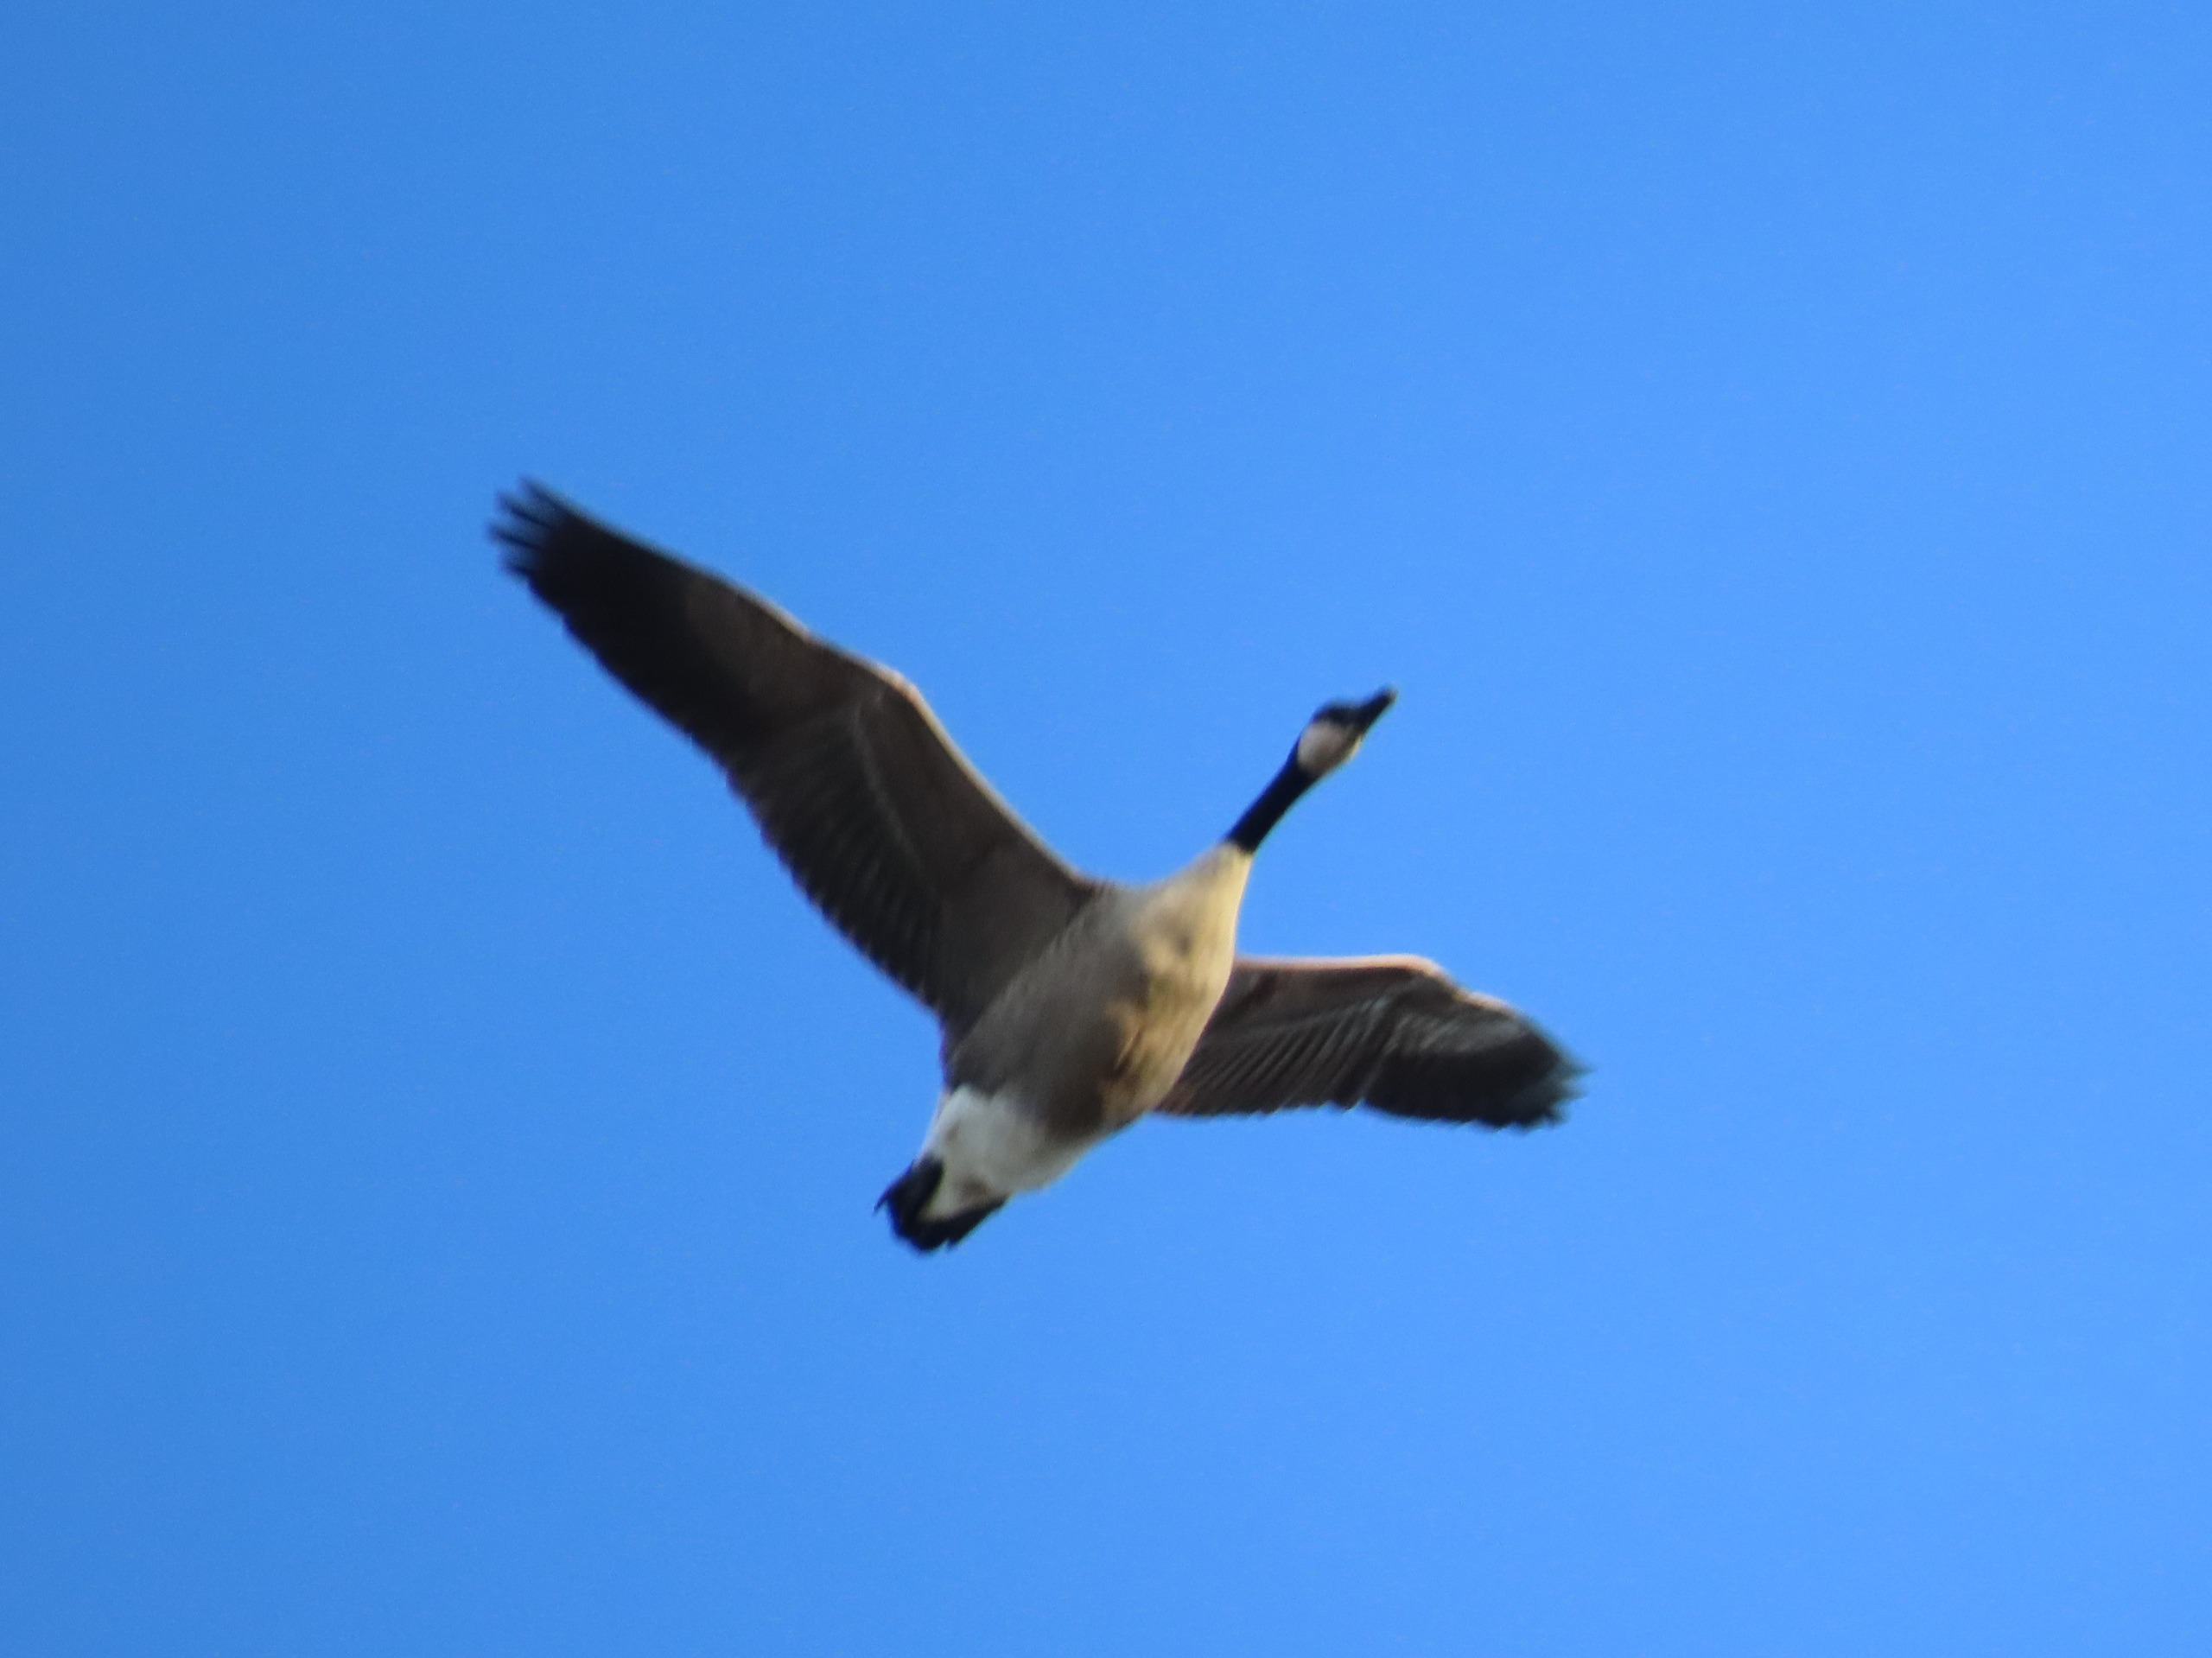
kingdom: Animalia
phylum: Chordata
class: Aves
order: Anseriformes
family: Anatidae
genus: Branta
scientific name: Branta canadensis
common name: Canadagås
